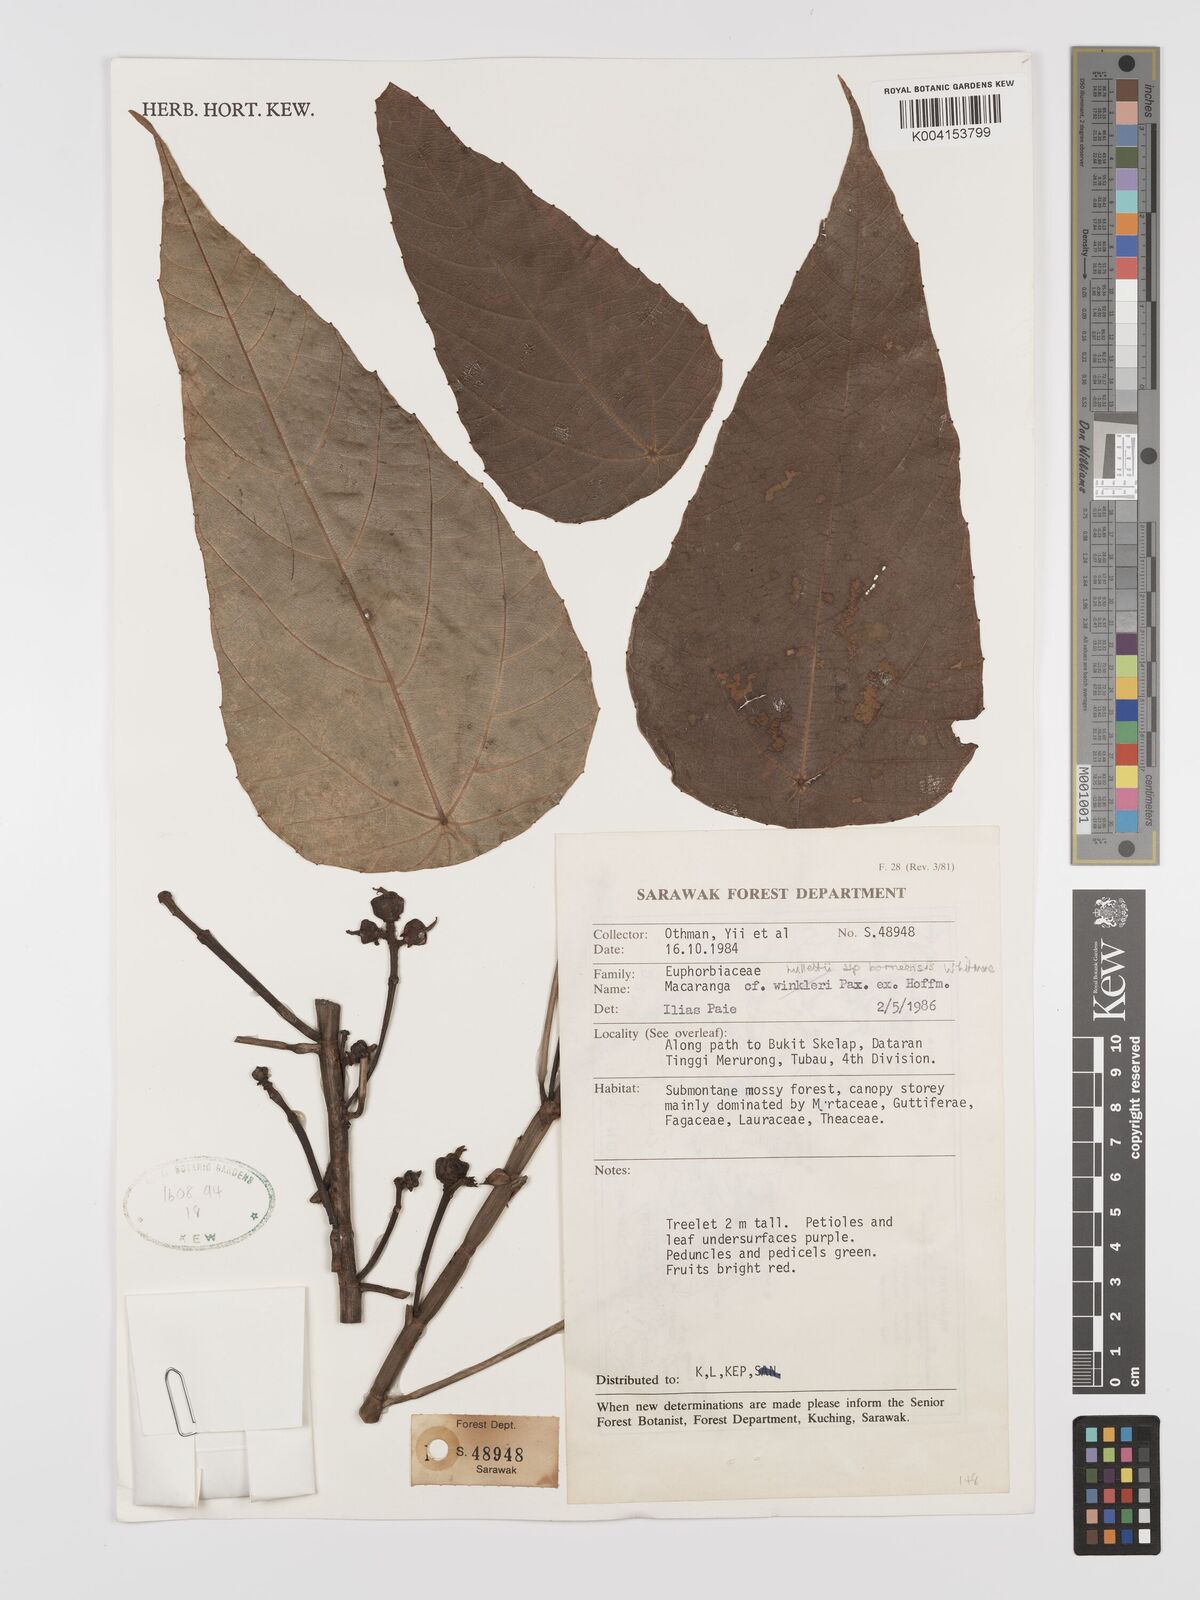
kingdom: Plantae
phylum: Tracheophyta
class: Magnoliopsida
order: Malpighiales
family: Euphorbiaceae
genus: Macaranga
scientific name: Macaranga hullettii
